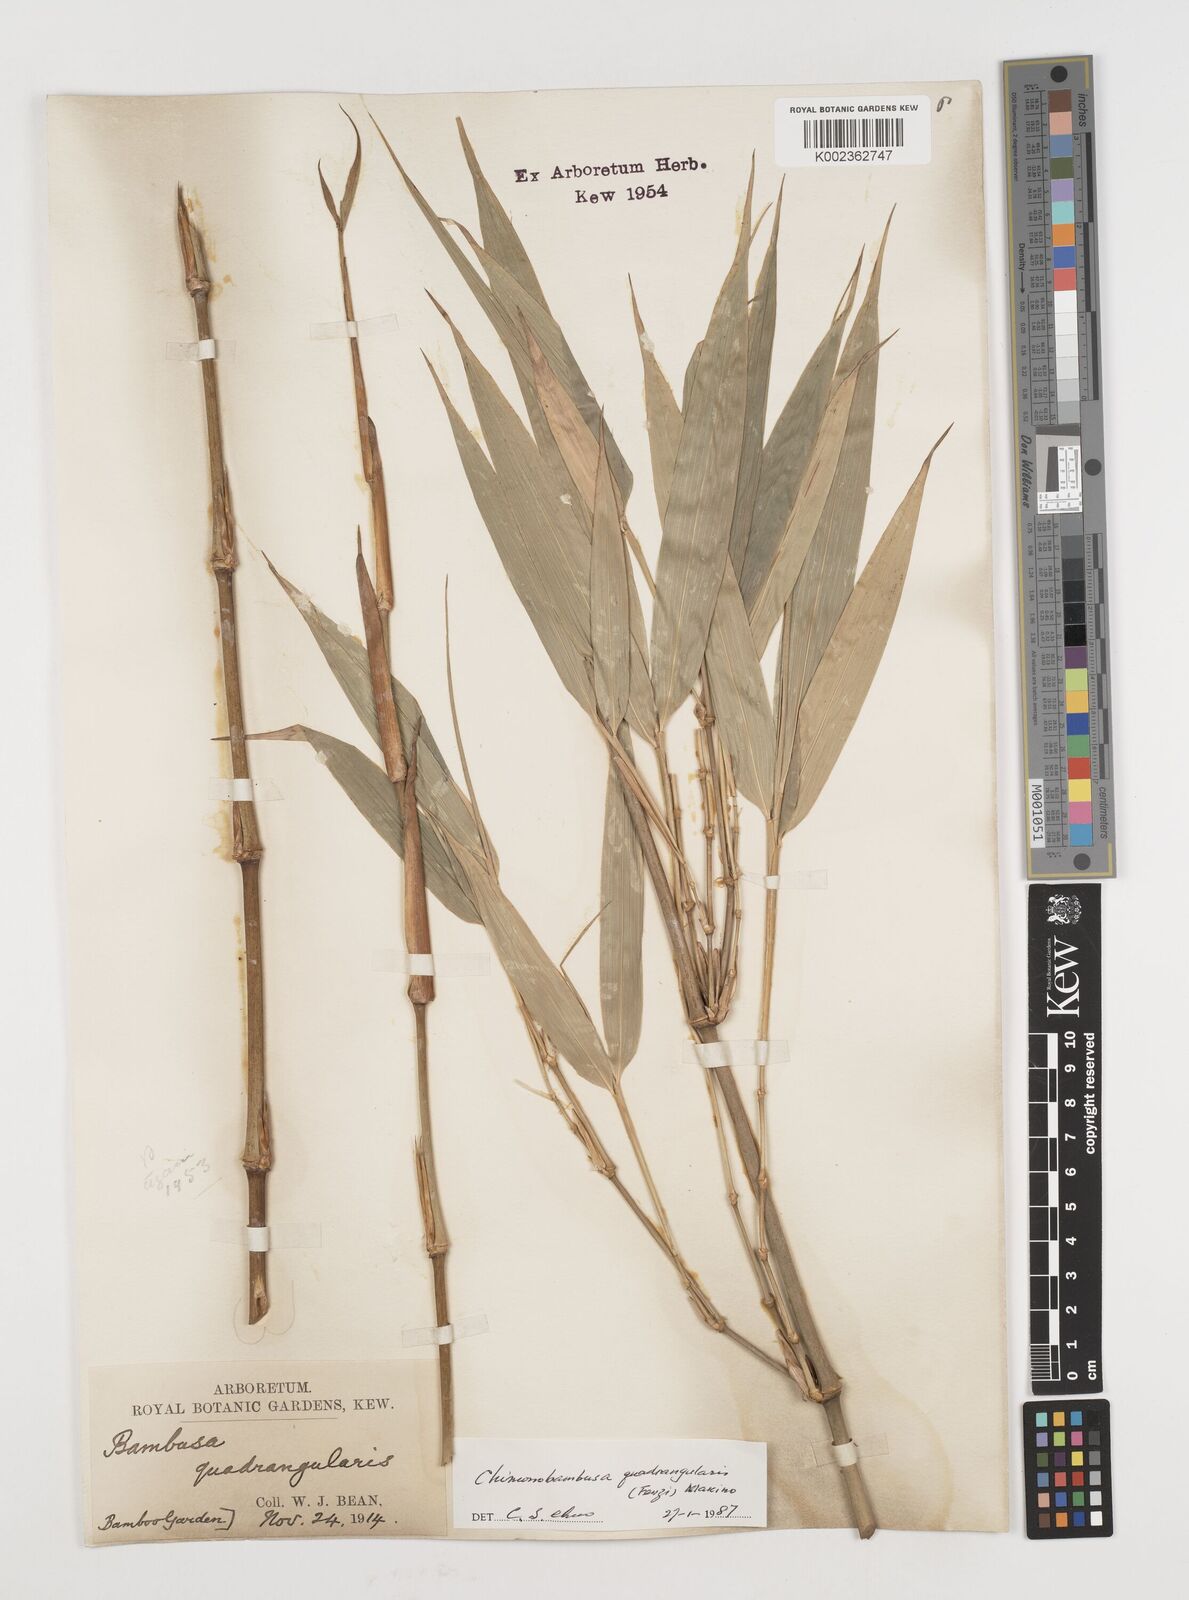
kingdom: Plantae
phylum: Tracheophyta
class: Liliopsida
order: Poales
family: Poaceae
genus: Chimonobambusa
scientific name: Chimonobambusa quadrangularis
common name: Square-stemmed bamboo
